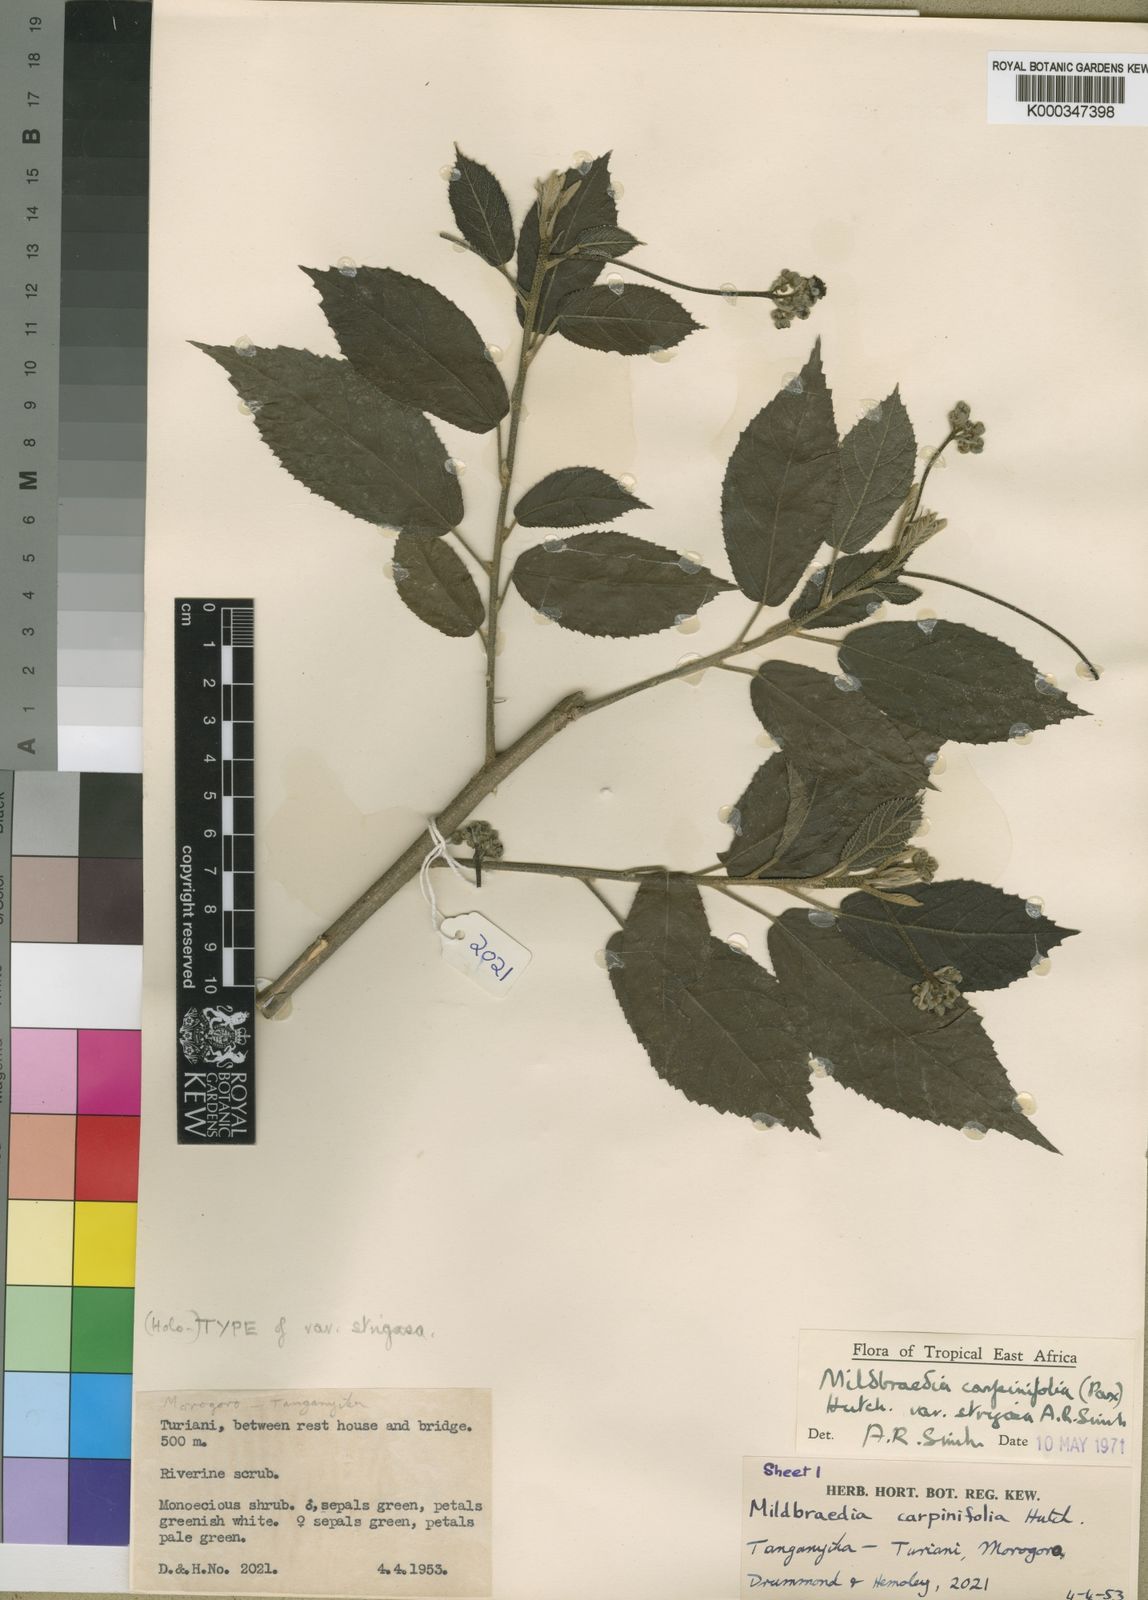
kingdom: Plantae
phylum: Tracheophyta
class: Magnoliopsida
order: Malpighiales
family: Euphorbiaceae
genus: Mildbraedia
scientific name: Mildbraedia carpinifolia
